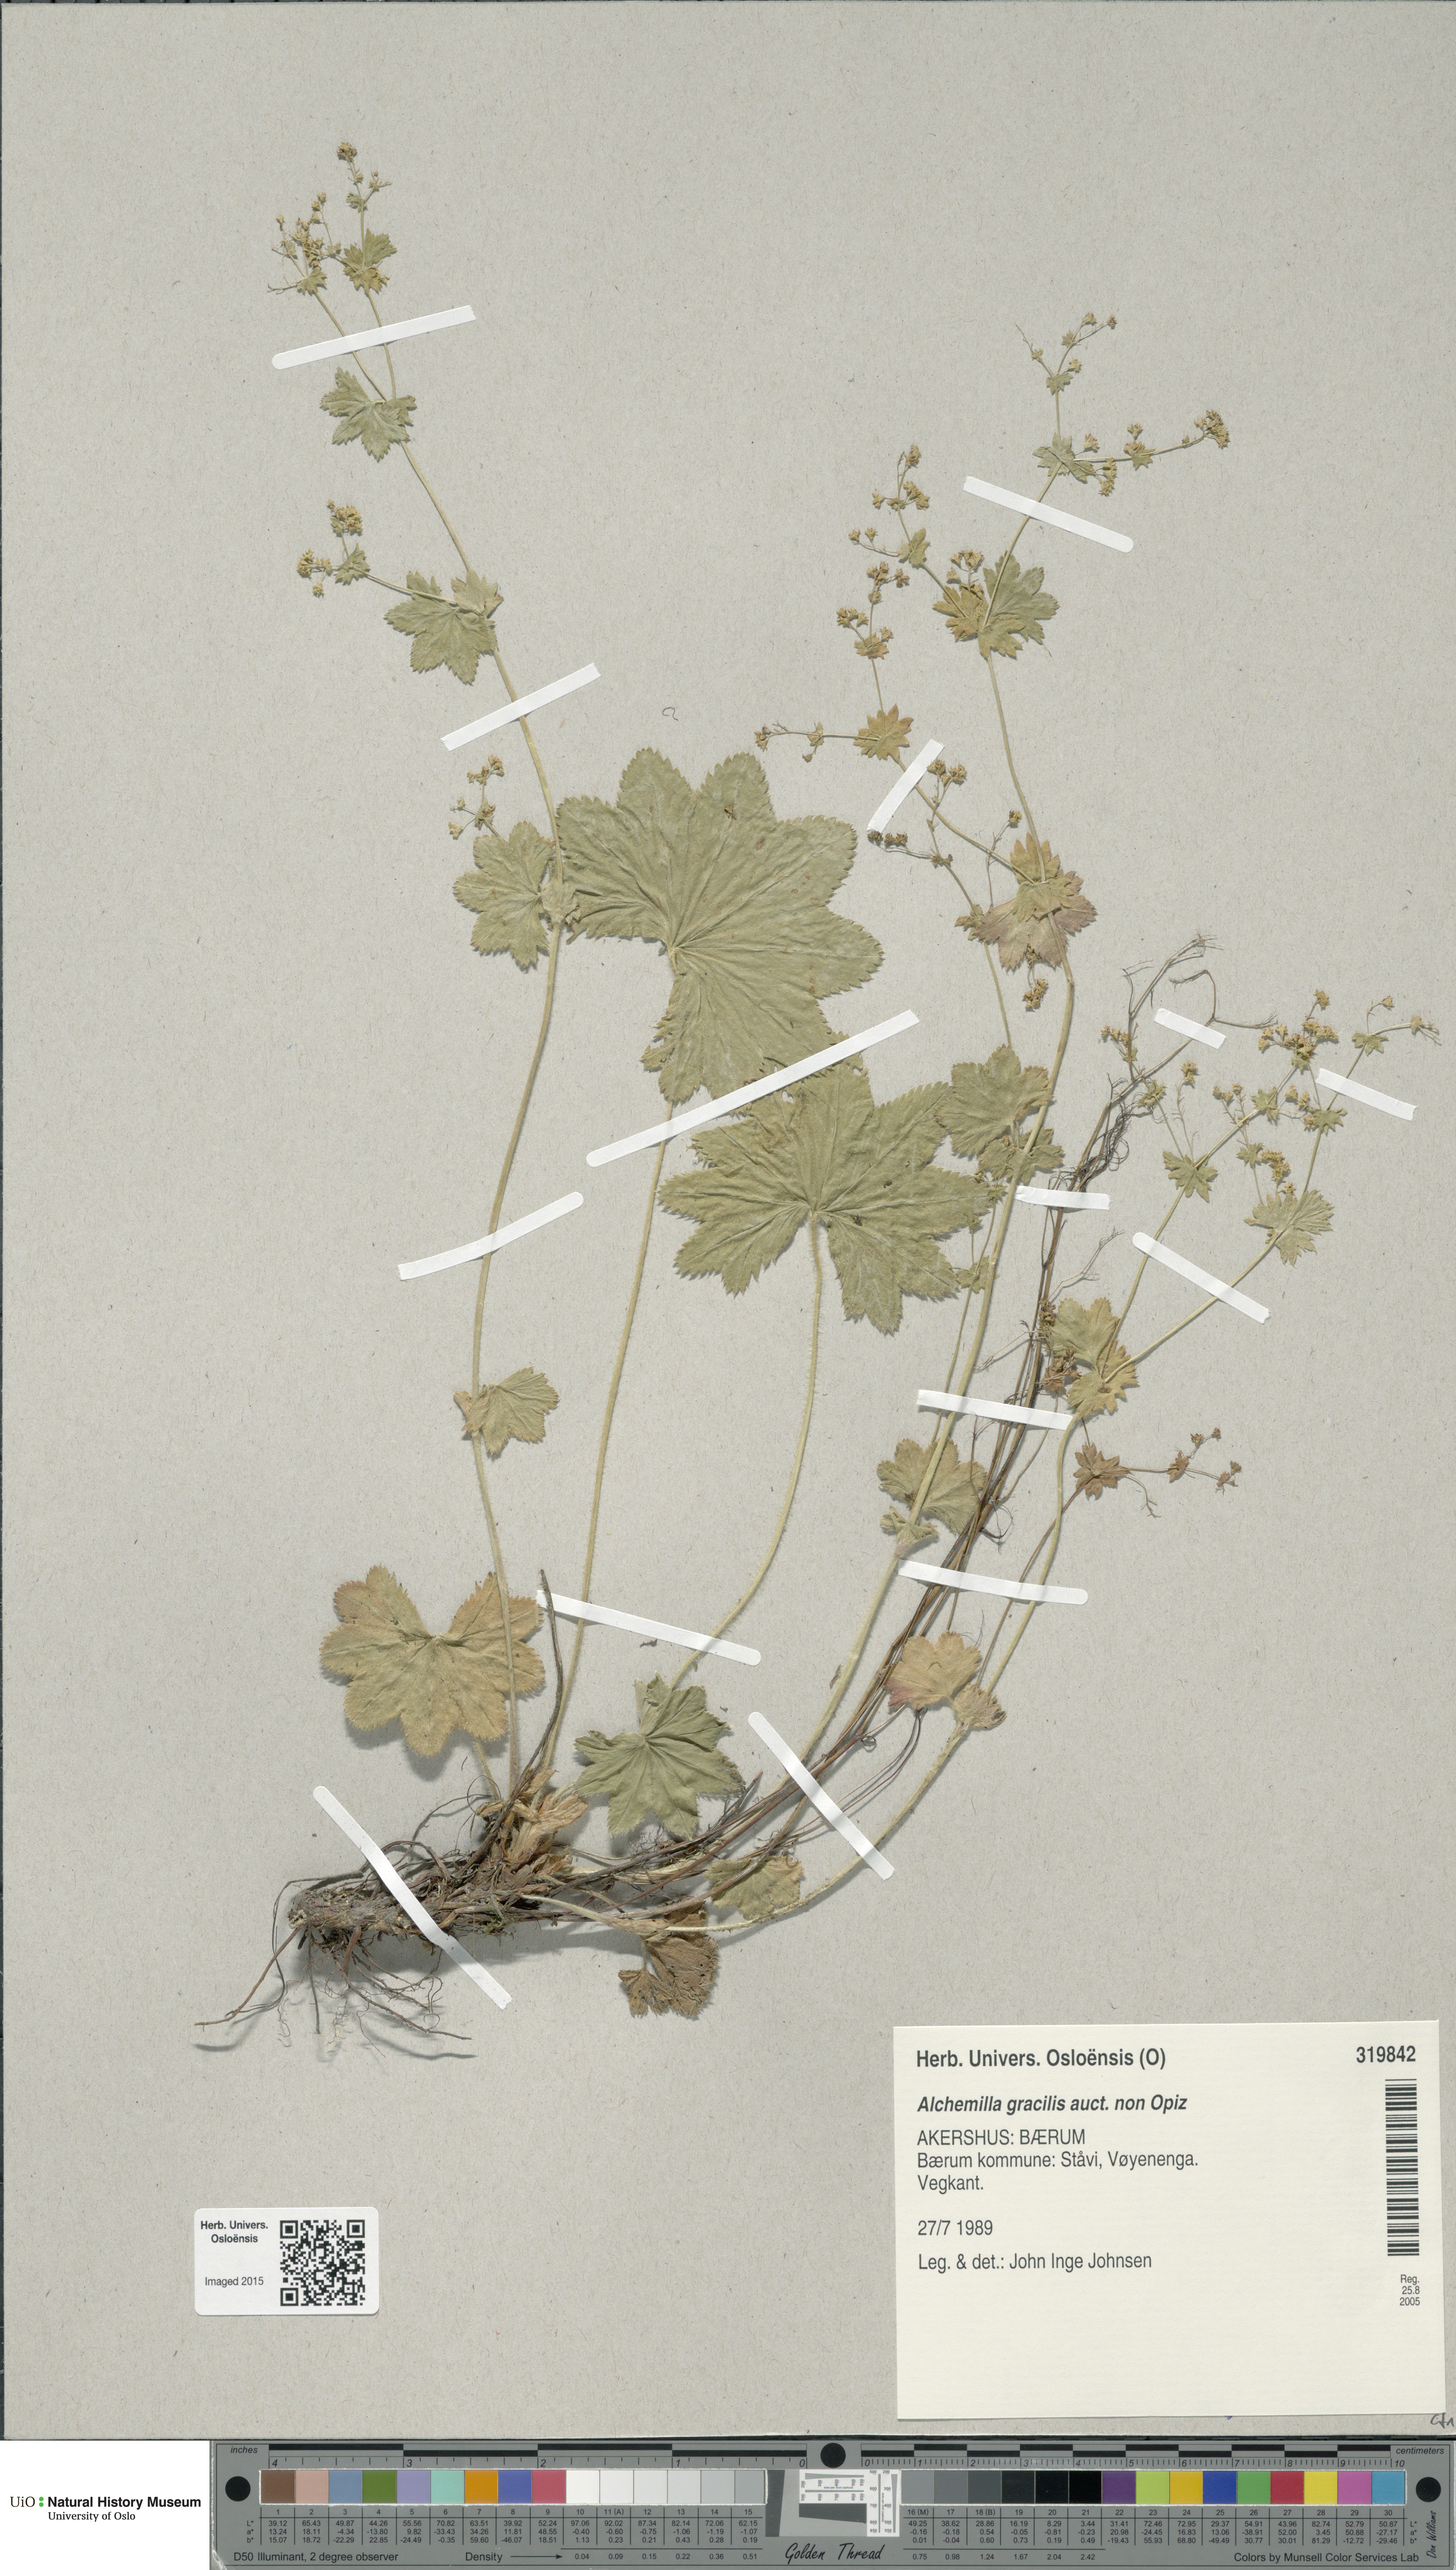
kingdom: Plantae
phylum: Tracheophyta
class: Magnoliopsida
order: Rosales
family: Rosaceae
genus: Alchemilla
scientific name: Alchemilla micans
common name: Gleaming lady's mantle
